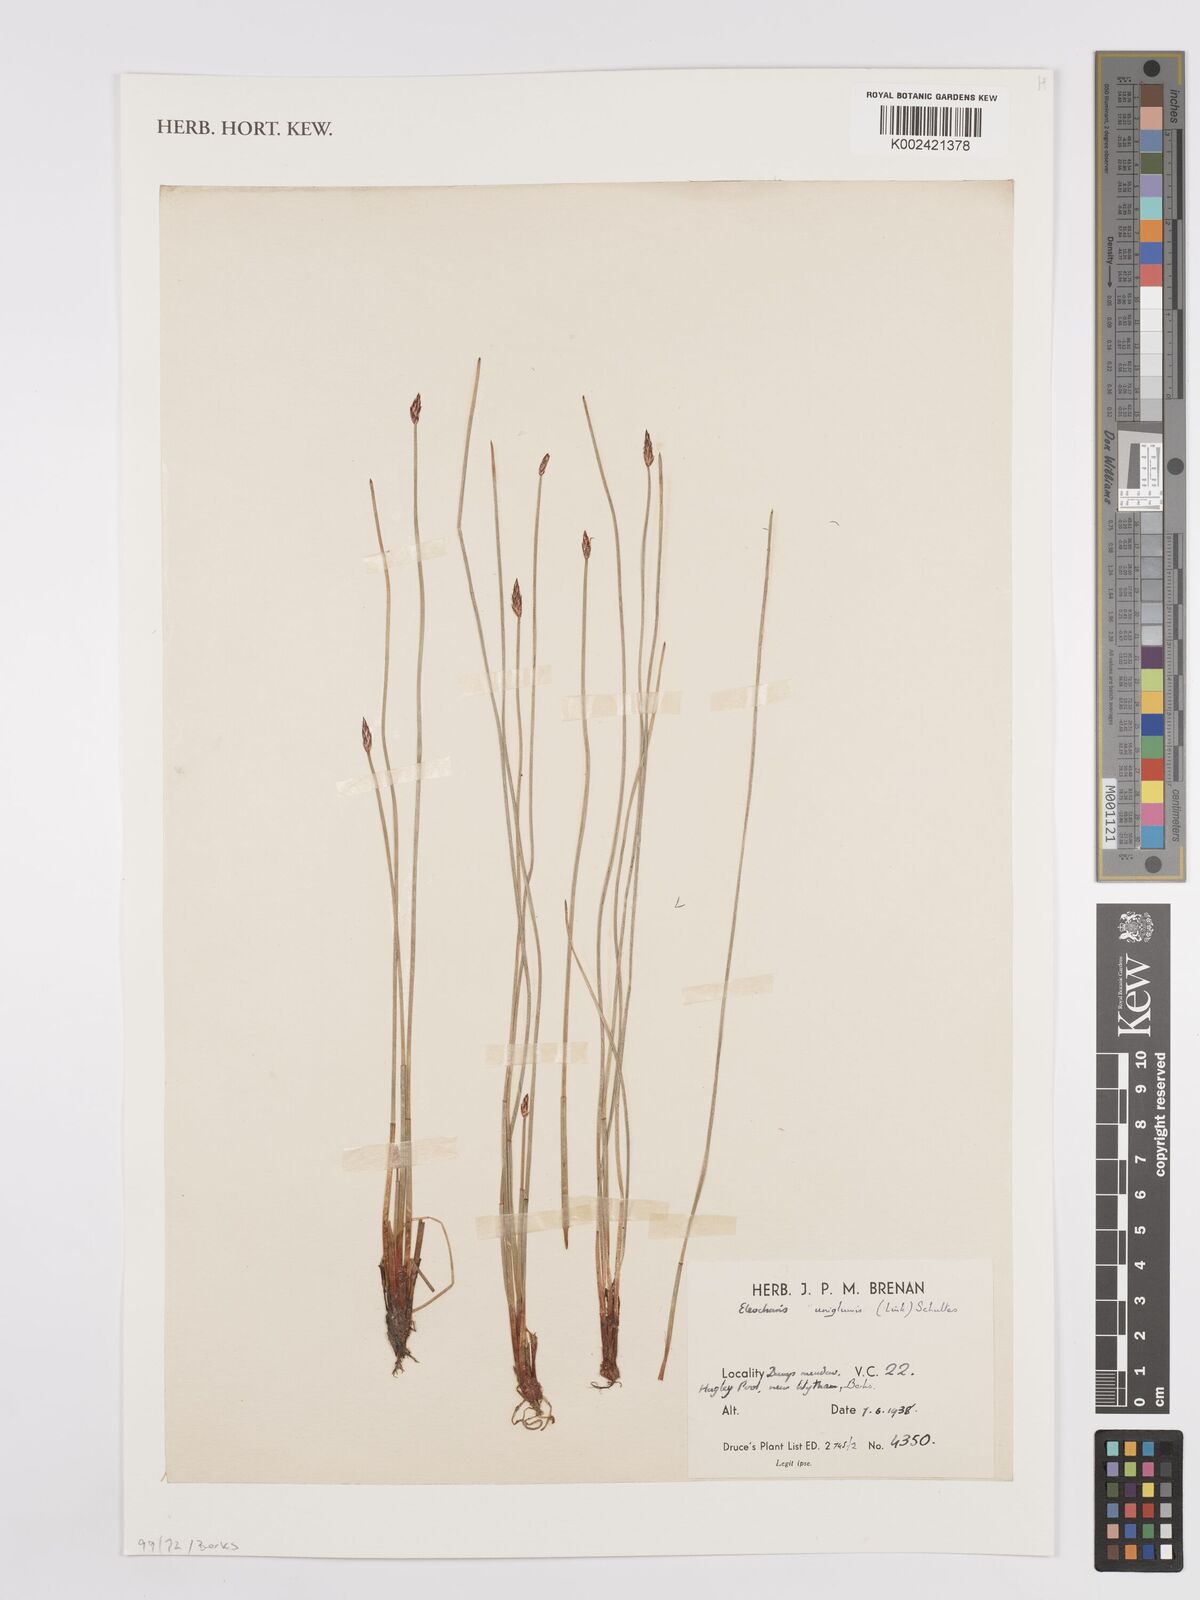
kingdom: Plantae
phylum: Tracheophyta
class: Liliopsida
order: Poales
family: Cyperaceae
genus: Eleocharis
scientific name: Eleocharis uniglumis
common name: Slender spike-rush
